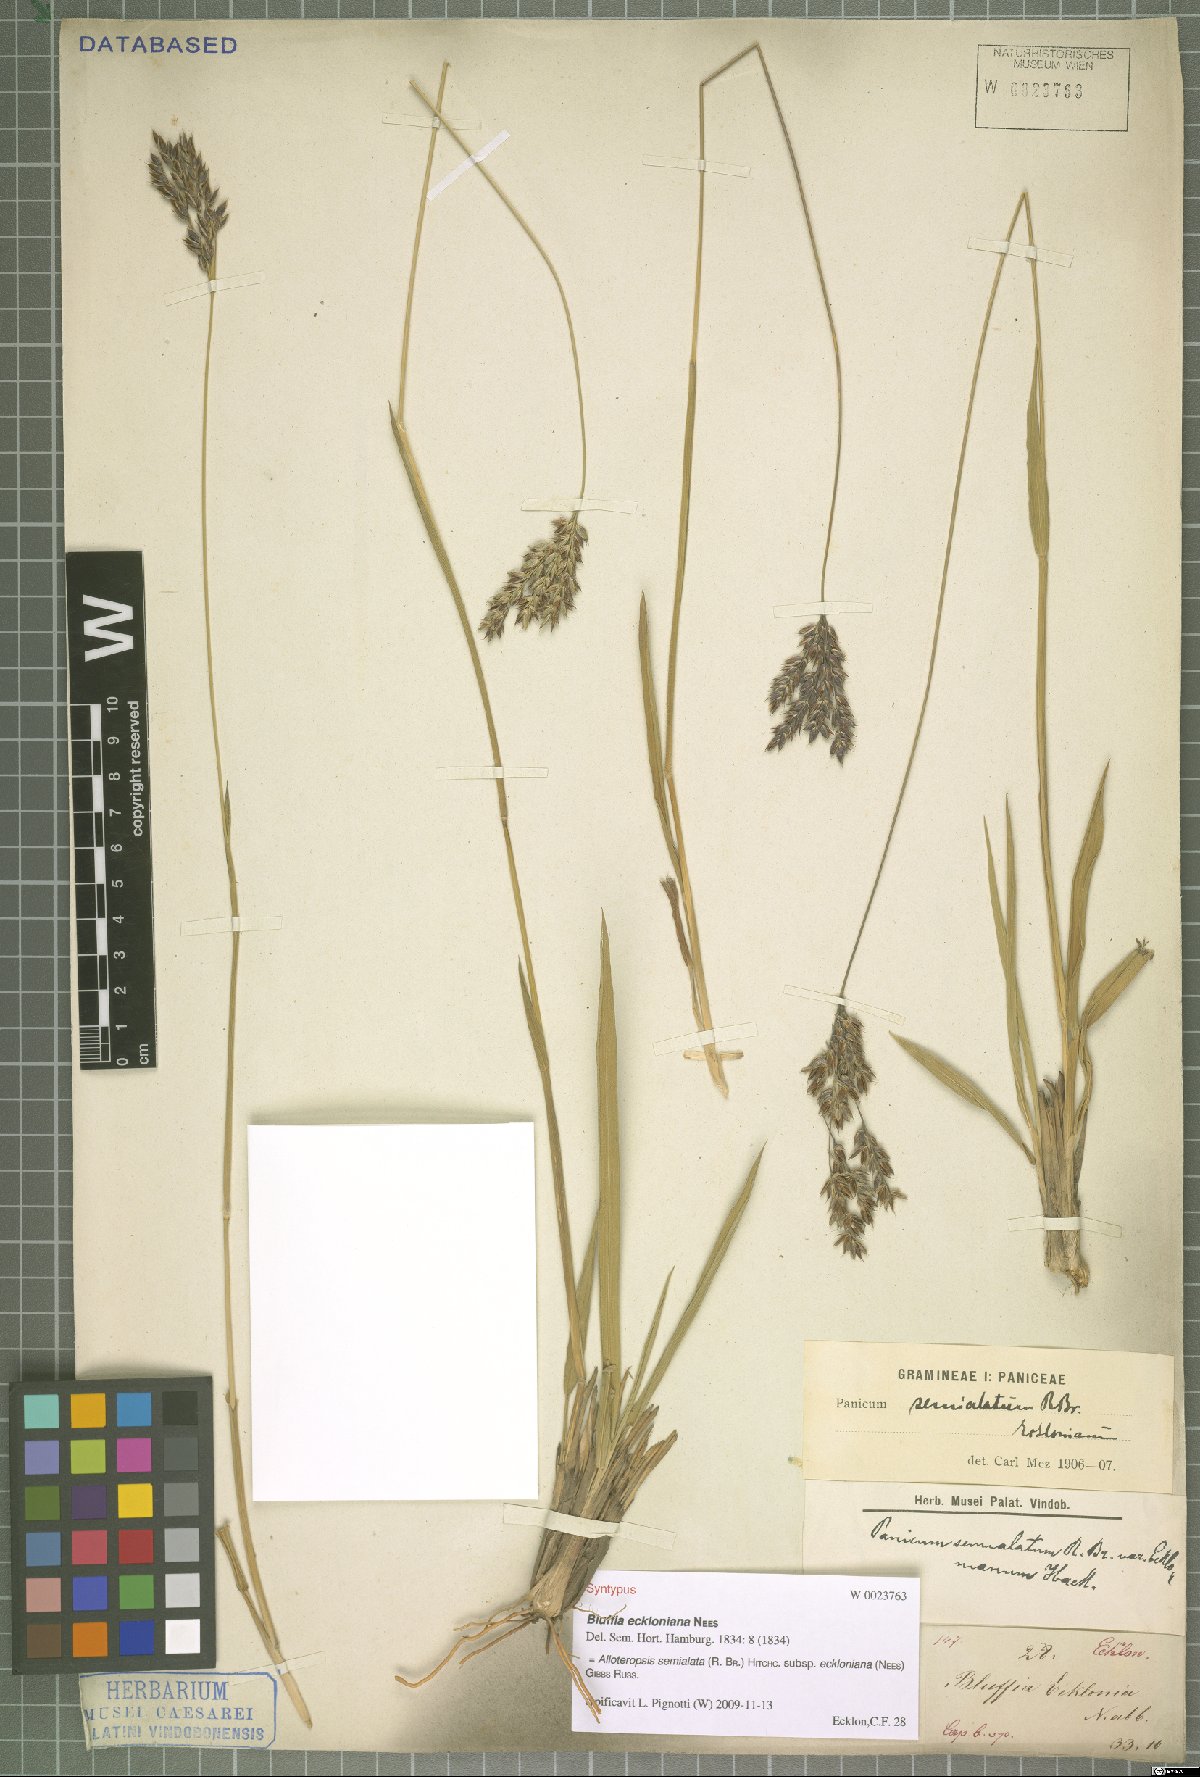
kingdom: Plantae
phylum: Tracheophyta
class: Liliopsida
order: Poales
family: Poaceae
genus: Alloteropsis
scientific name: Alloteropsis semialata
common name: Cockatoo grass
